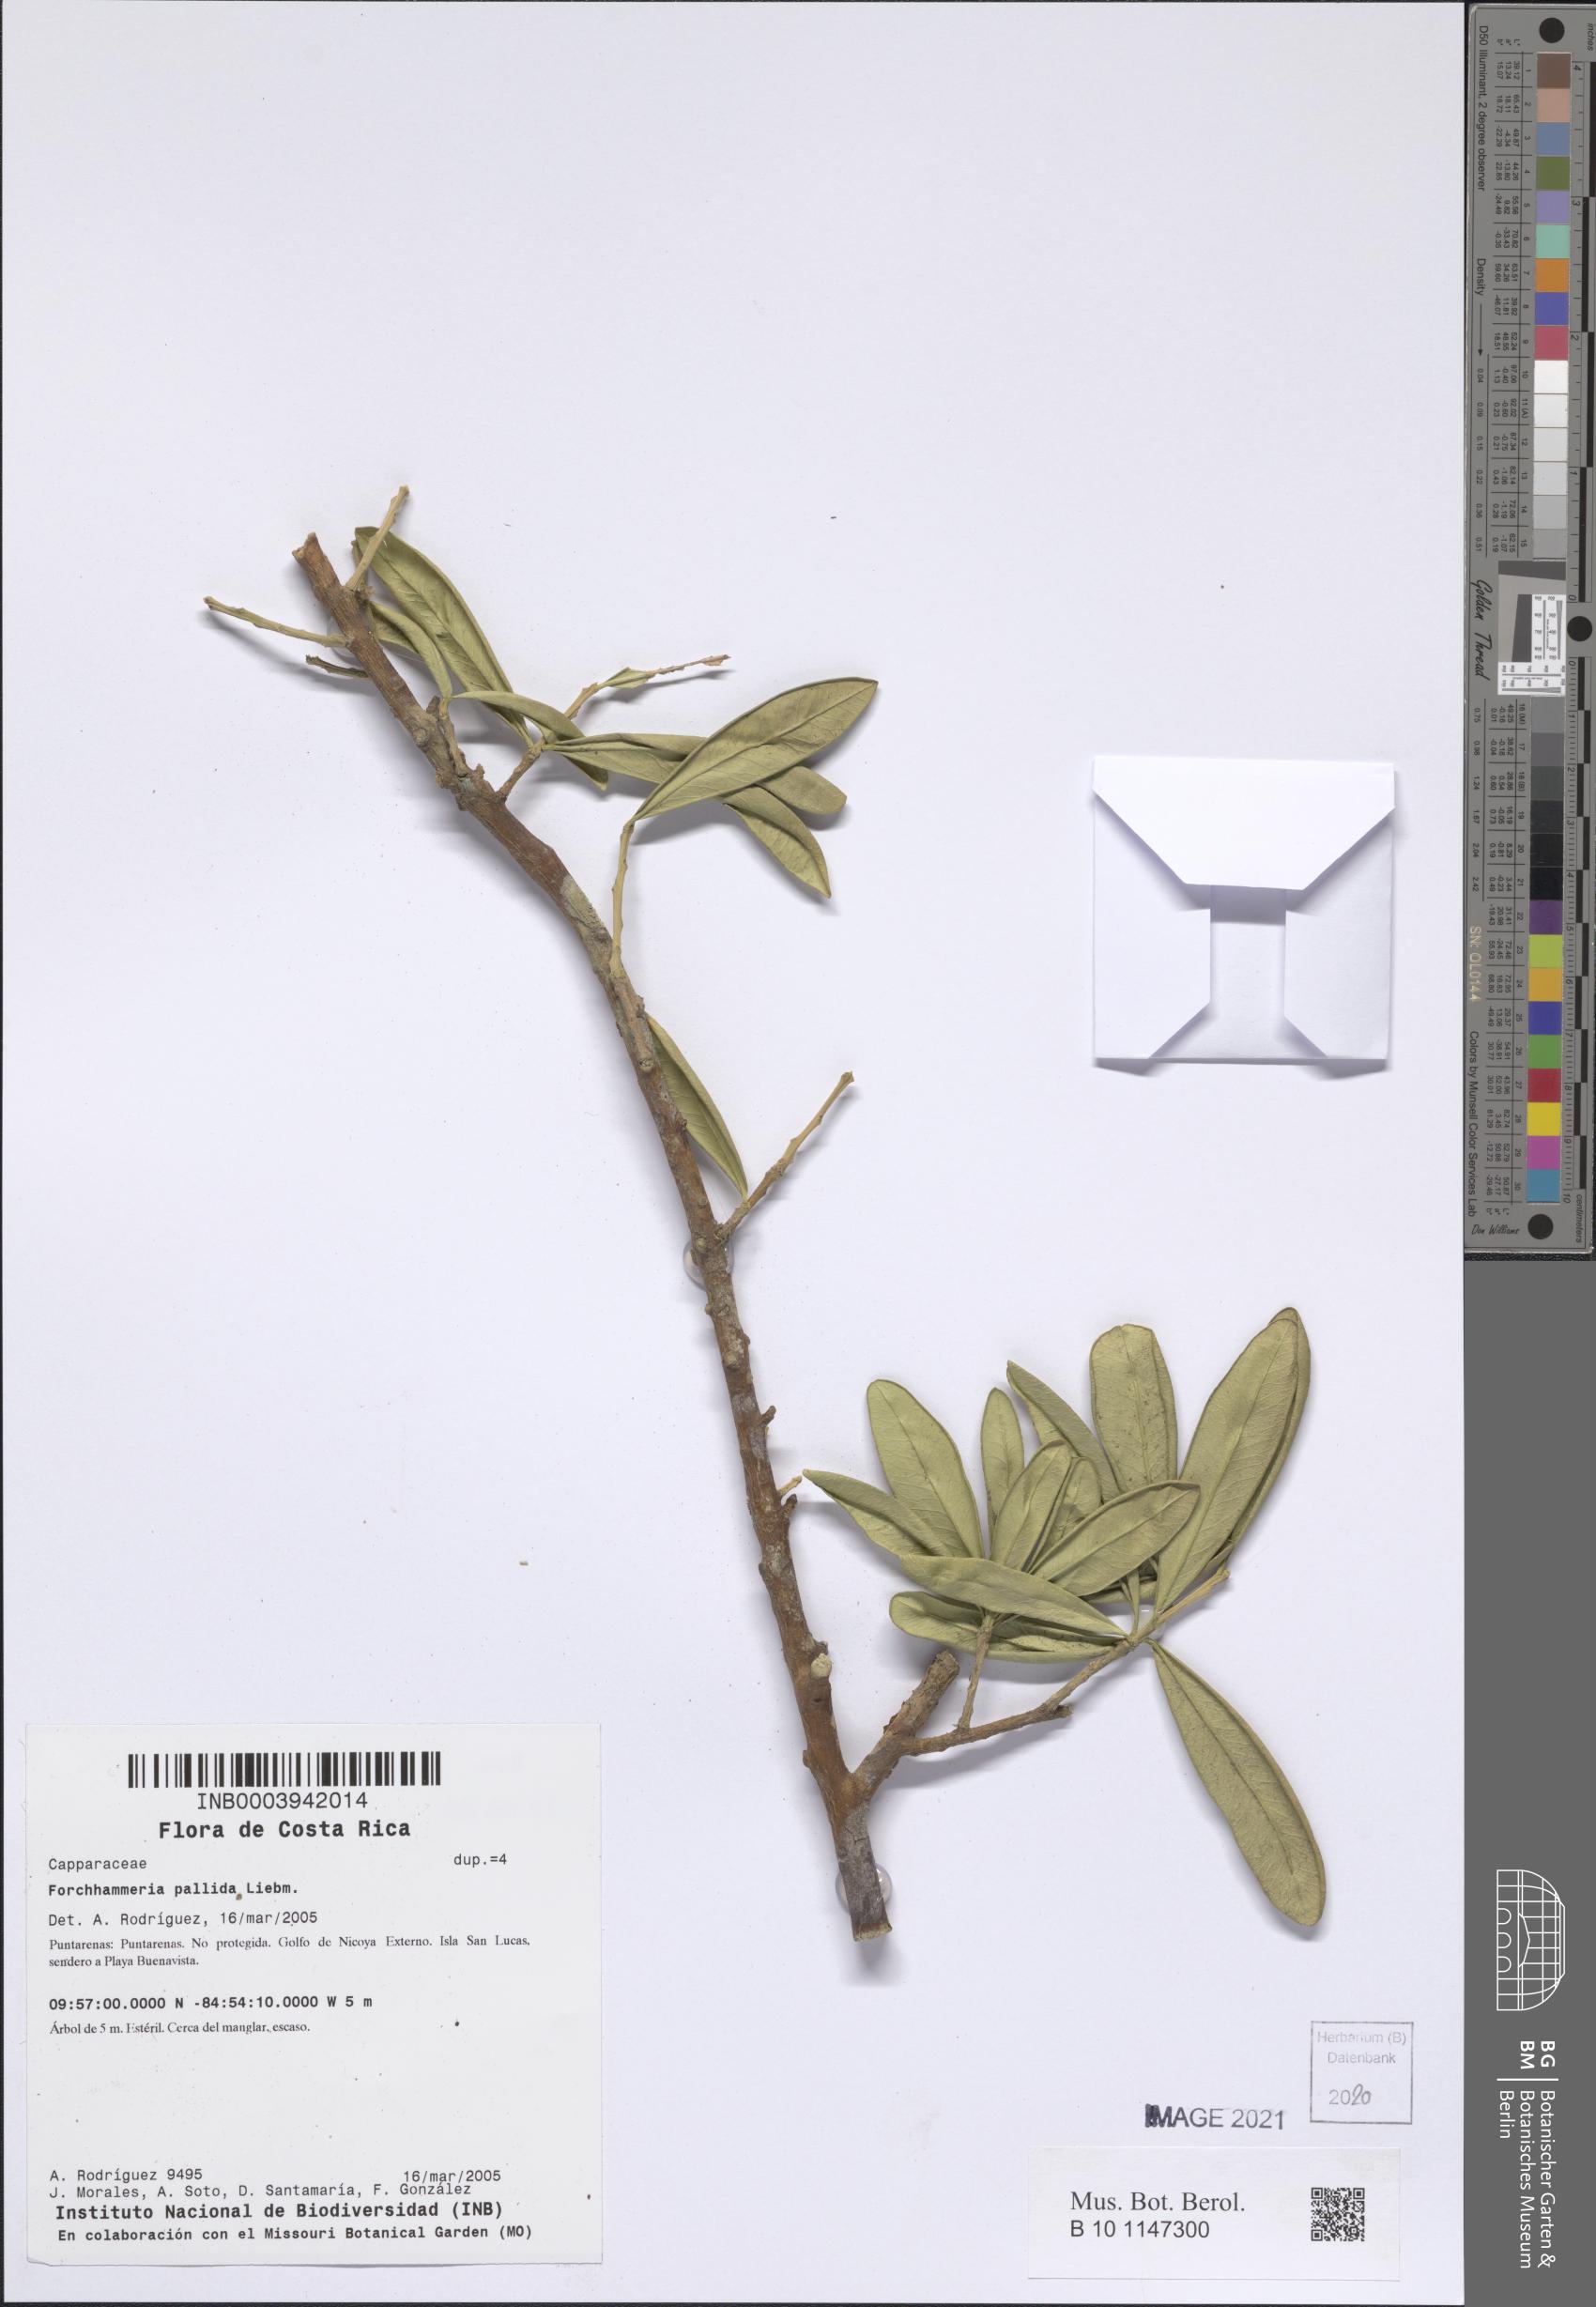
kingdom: Plantae
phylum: Tracheophyta
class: Magnoliopsida
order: Brassicales
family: Stixaceae
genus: Forchhammeria
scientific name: Forchhammeria pallida
